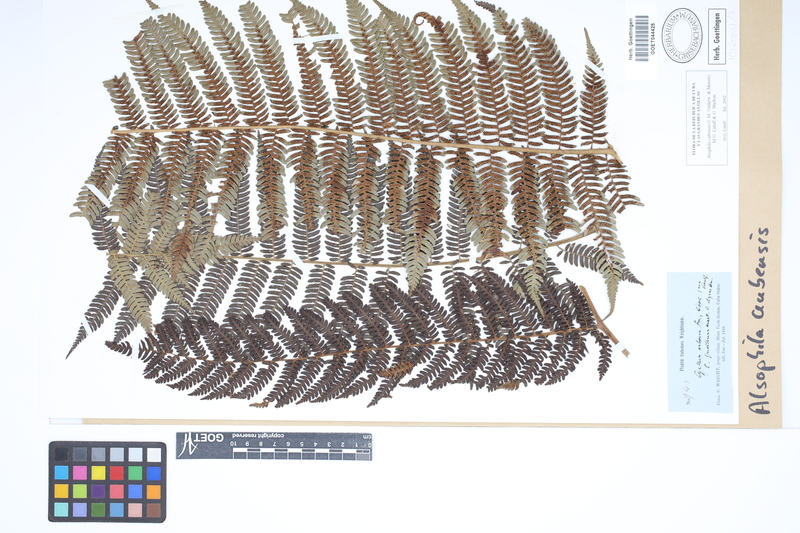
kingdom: Plantae
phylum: Tracheophyta
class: Polypodiopsida
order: Cyatheales
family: Cyatheaceae
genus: Alsophila
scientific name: Alsophila cubensis
